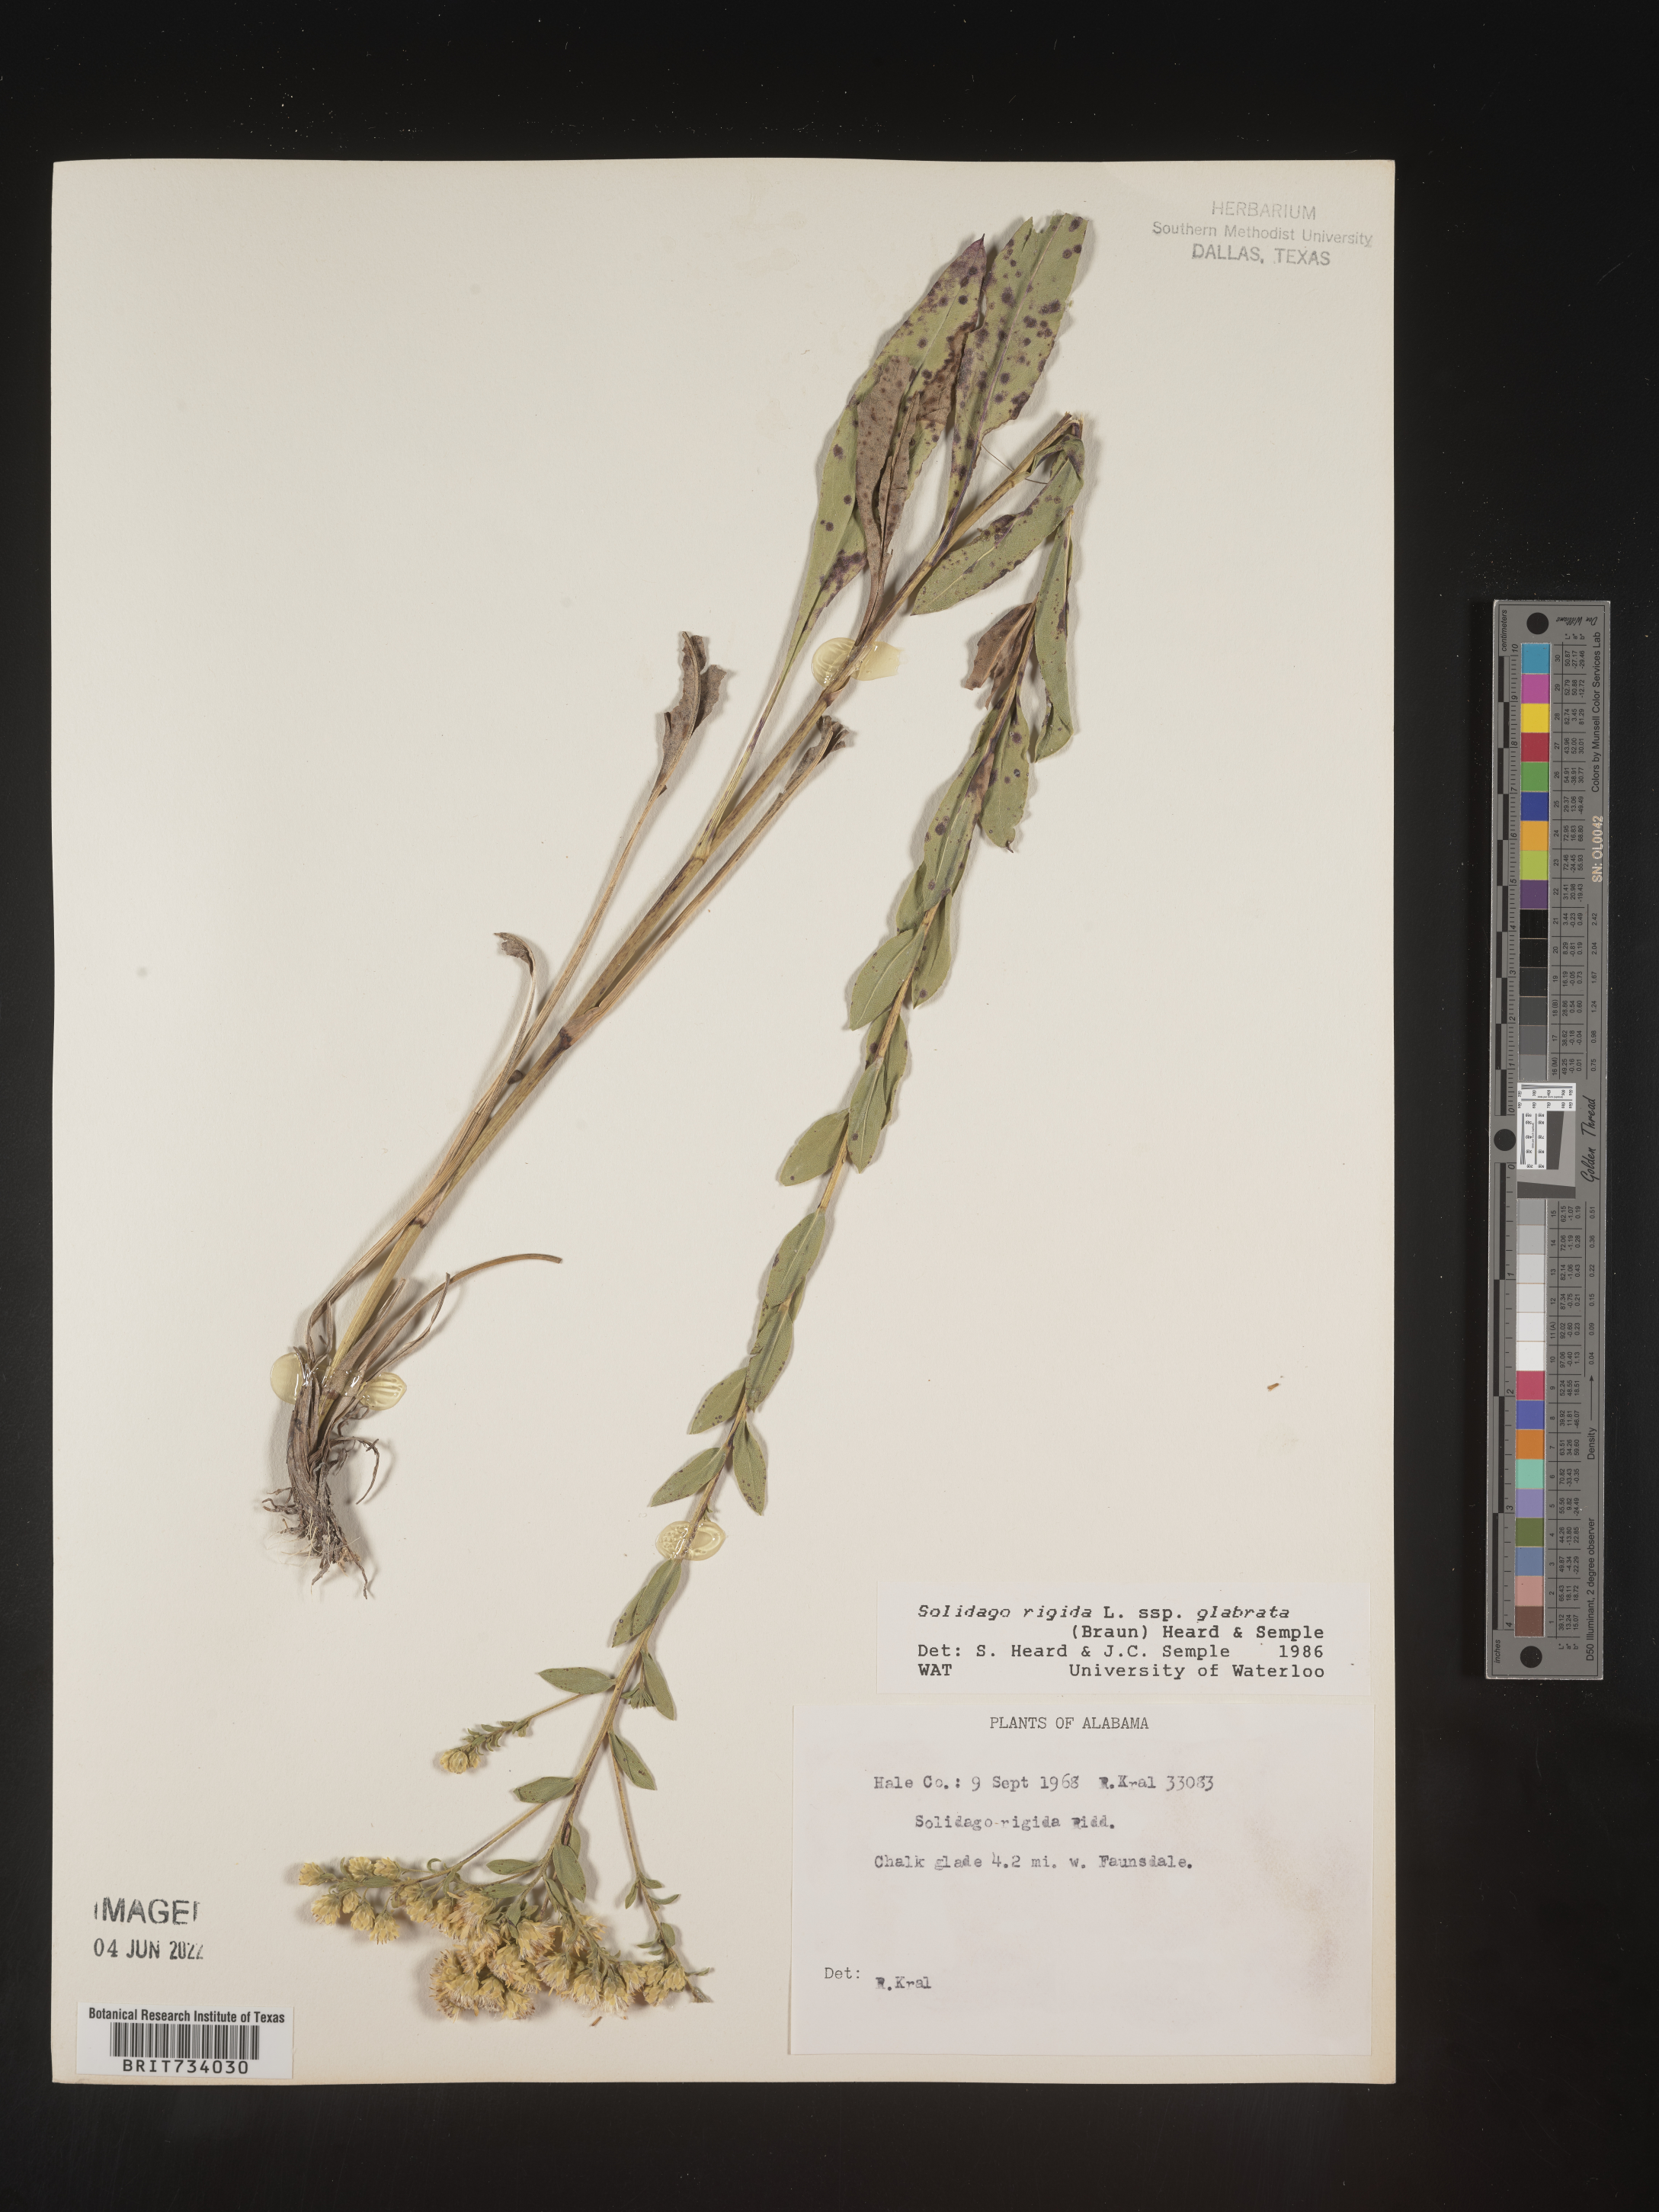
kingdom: Plantae
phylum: Tracheophyta
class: Magnoliopsida
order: Asterales
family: Asteraceae
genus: Solidago
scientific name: Solidago rigida
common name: Rigid goldenrod
